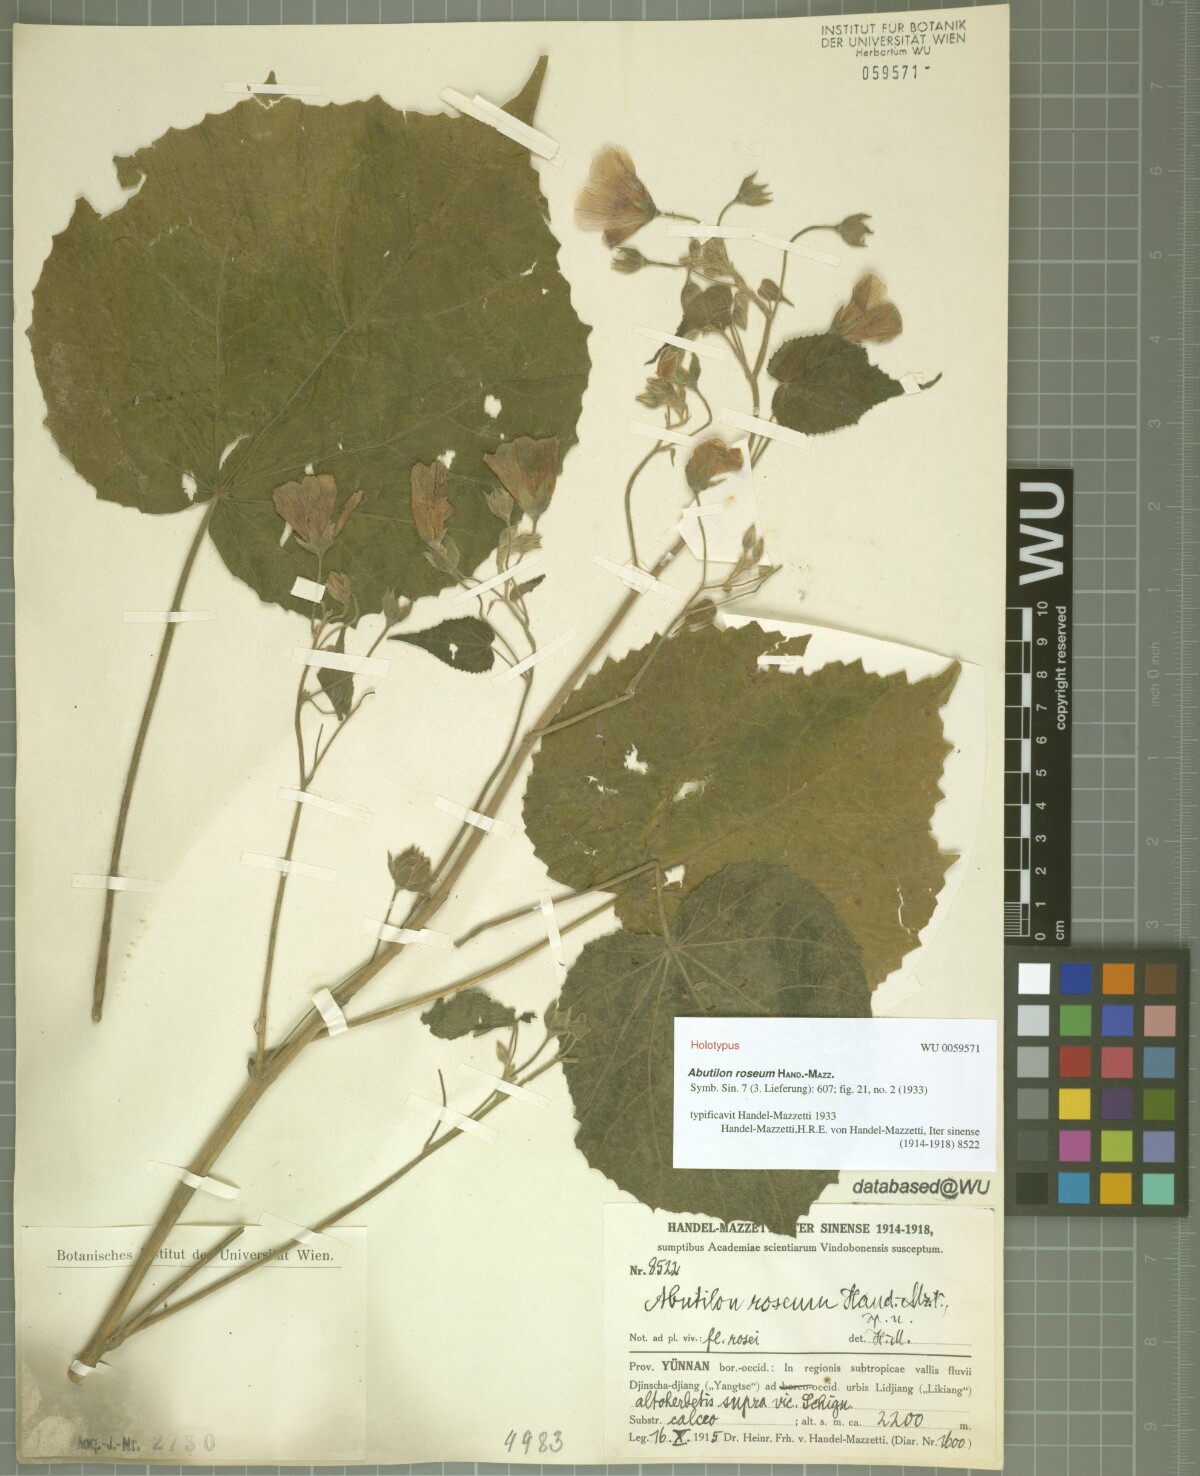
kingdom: Plantae
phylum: Tracheophyta
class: Magnoliopsida
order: Malvales
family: Malvaceae
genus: Abutilon
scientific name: Abutilon roseum
